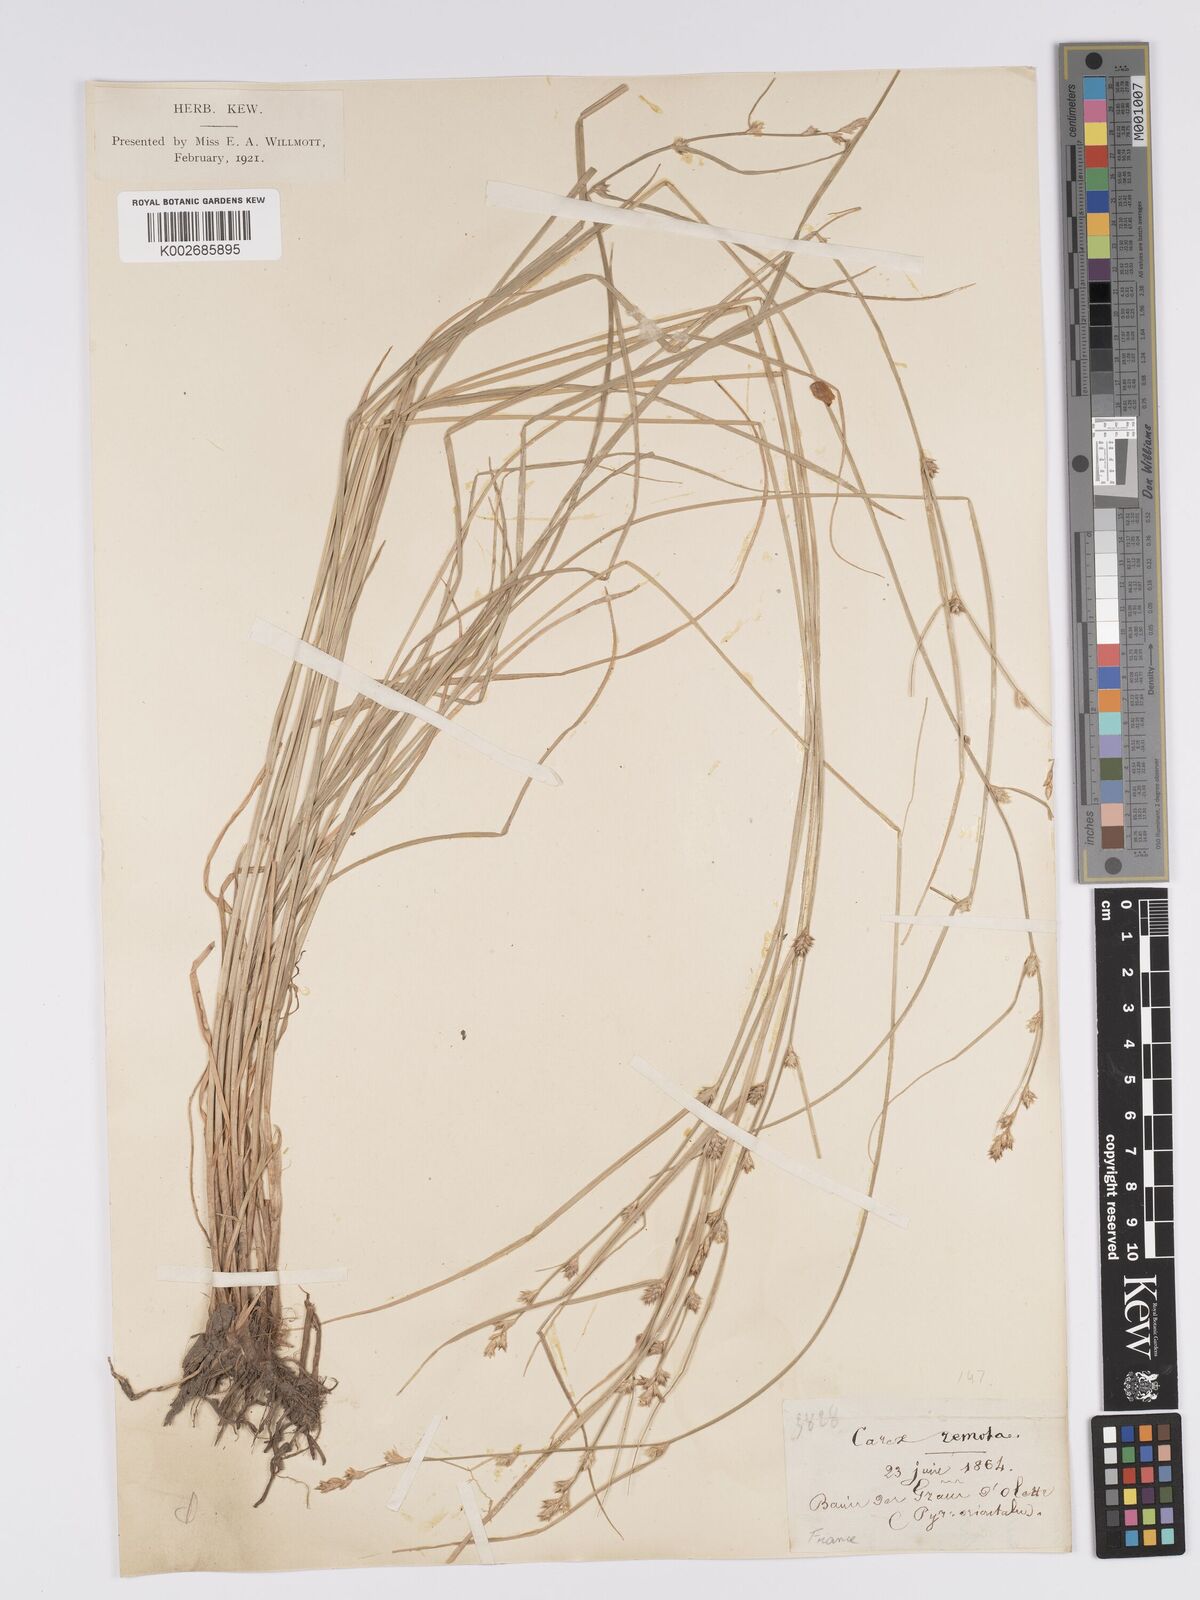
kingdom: Plantae
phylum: Tracheophyta
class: Liliopsida
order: Poales
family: Cyperaceae
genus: Carex
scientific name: Carex remota
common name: Remote sedge
